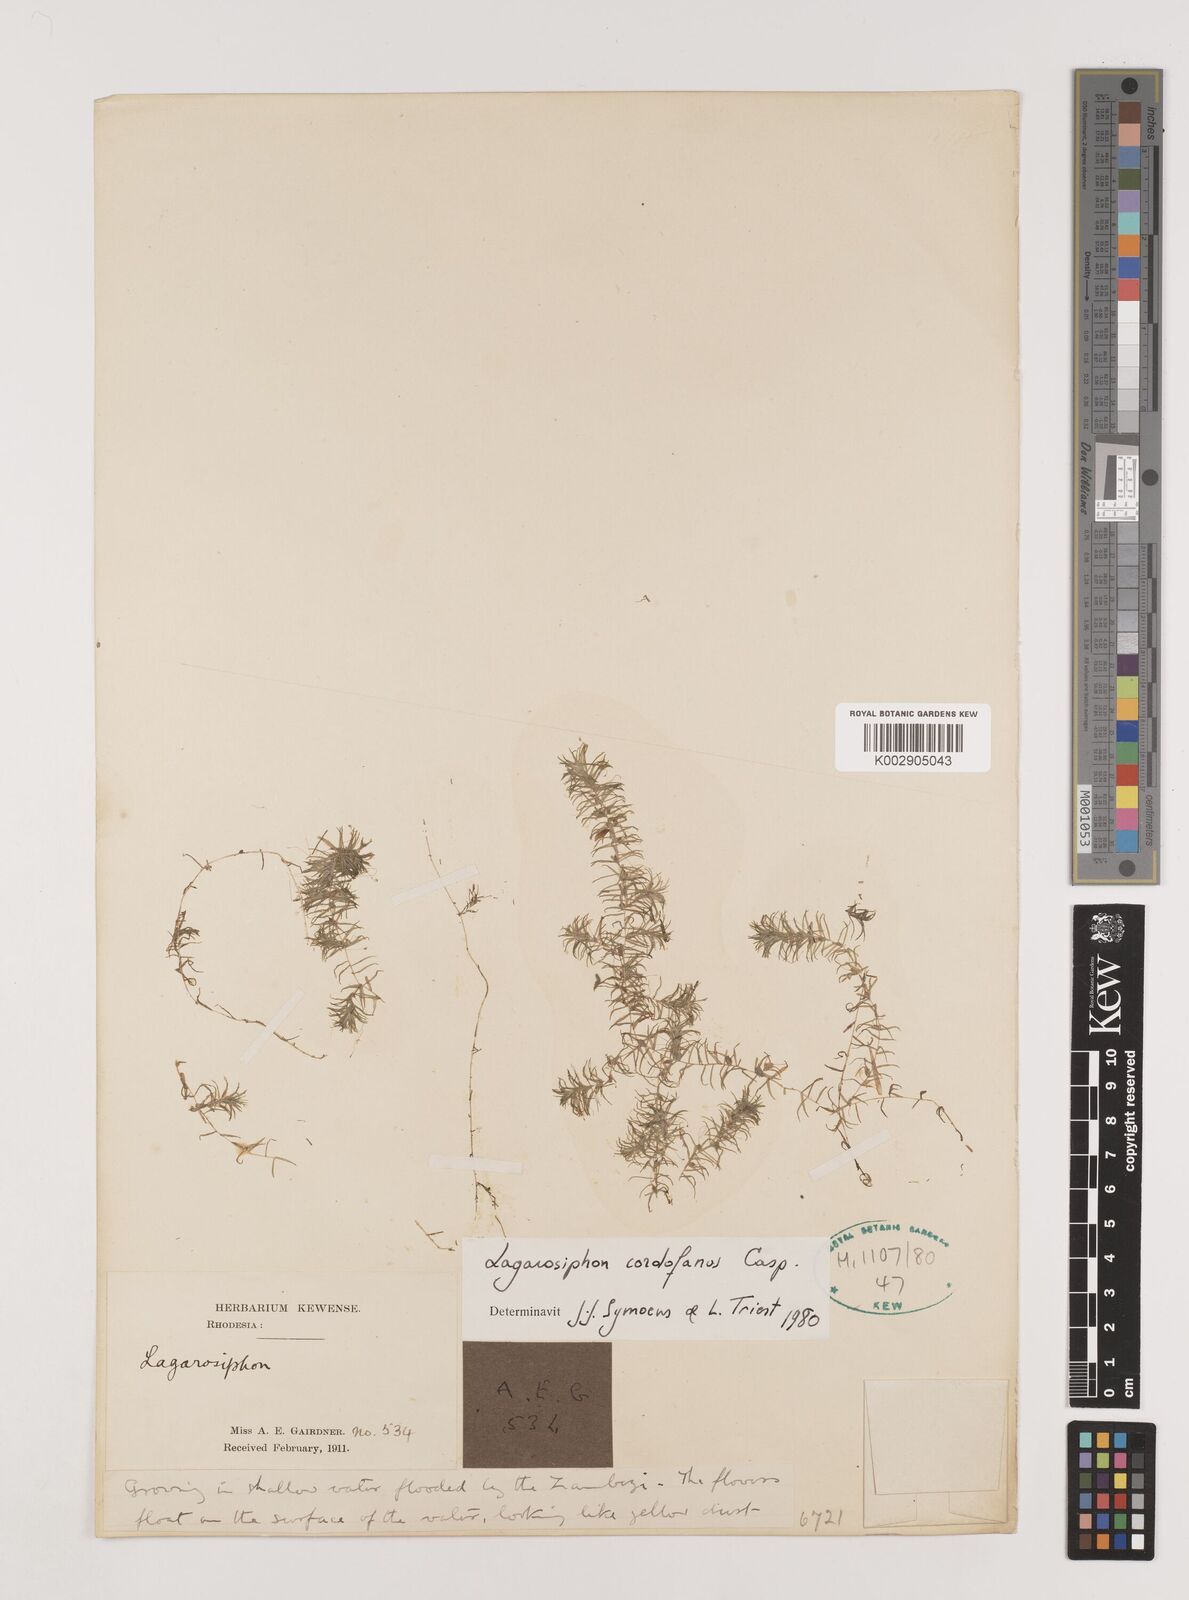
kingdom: Plantae
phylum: Tracheophyta
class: Liliopsida
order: Alismatales
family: Hydrocharitaceae
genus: Lagarosiphon
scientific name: Lagarosiphon cordofanus
